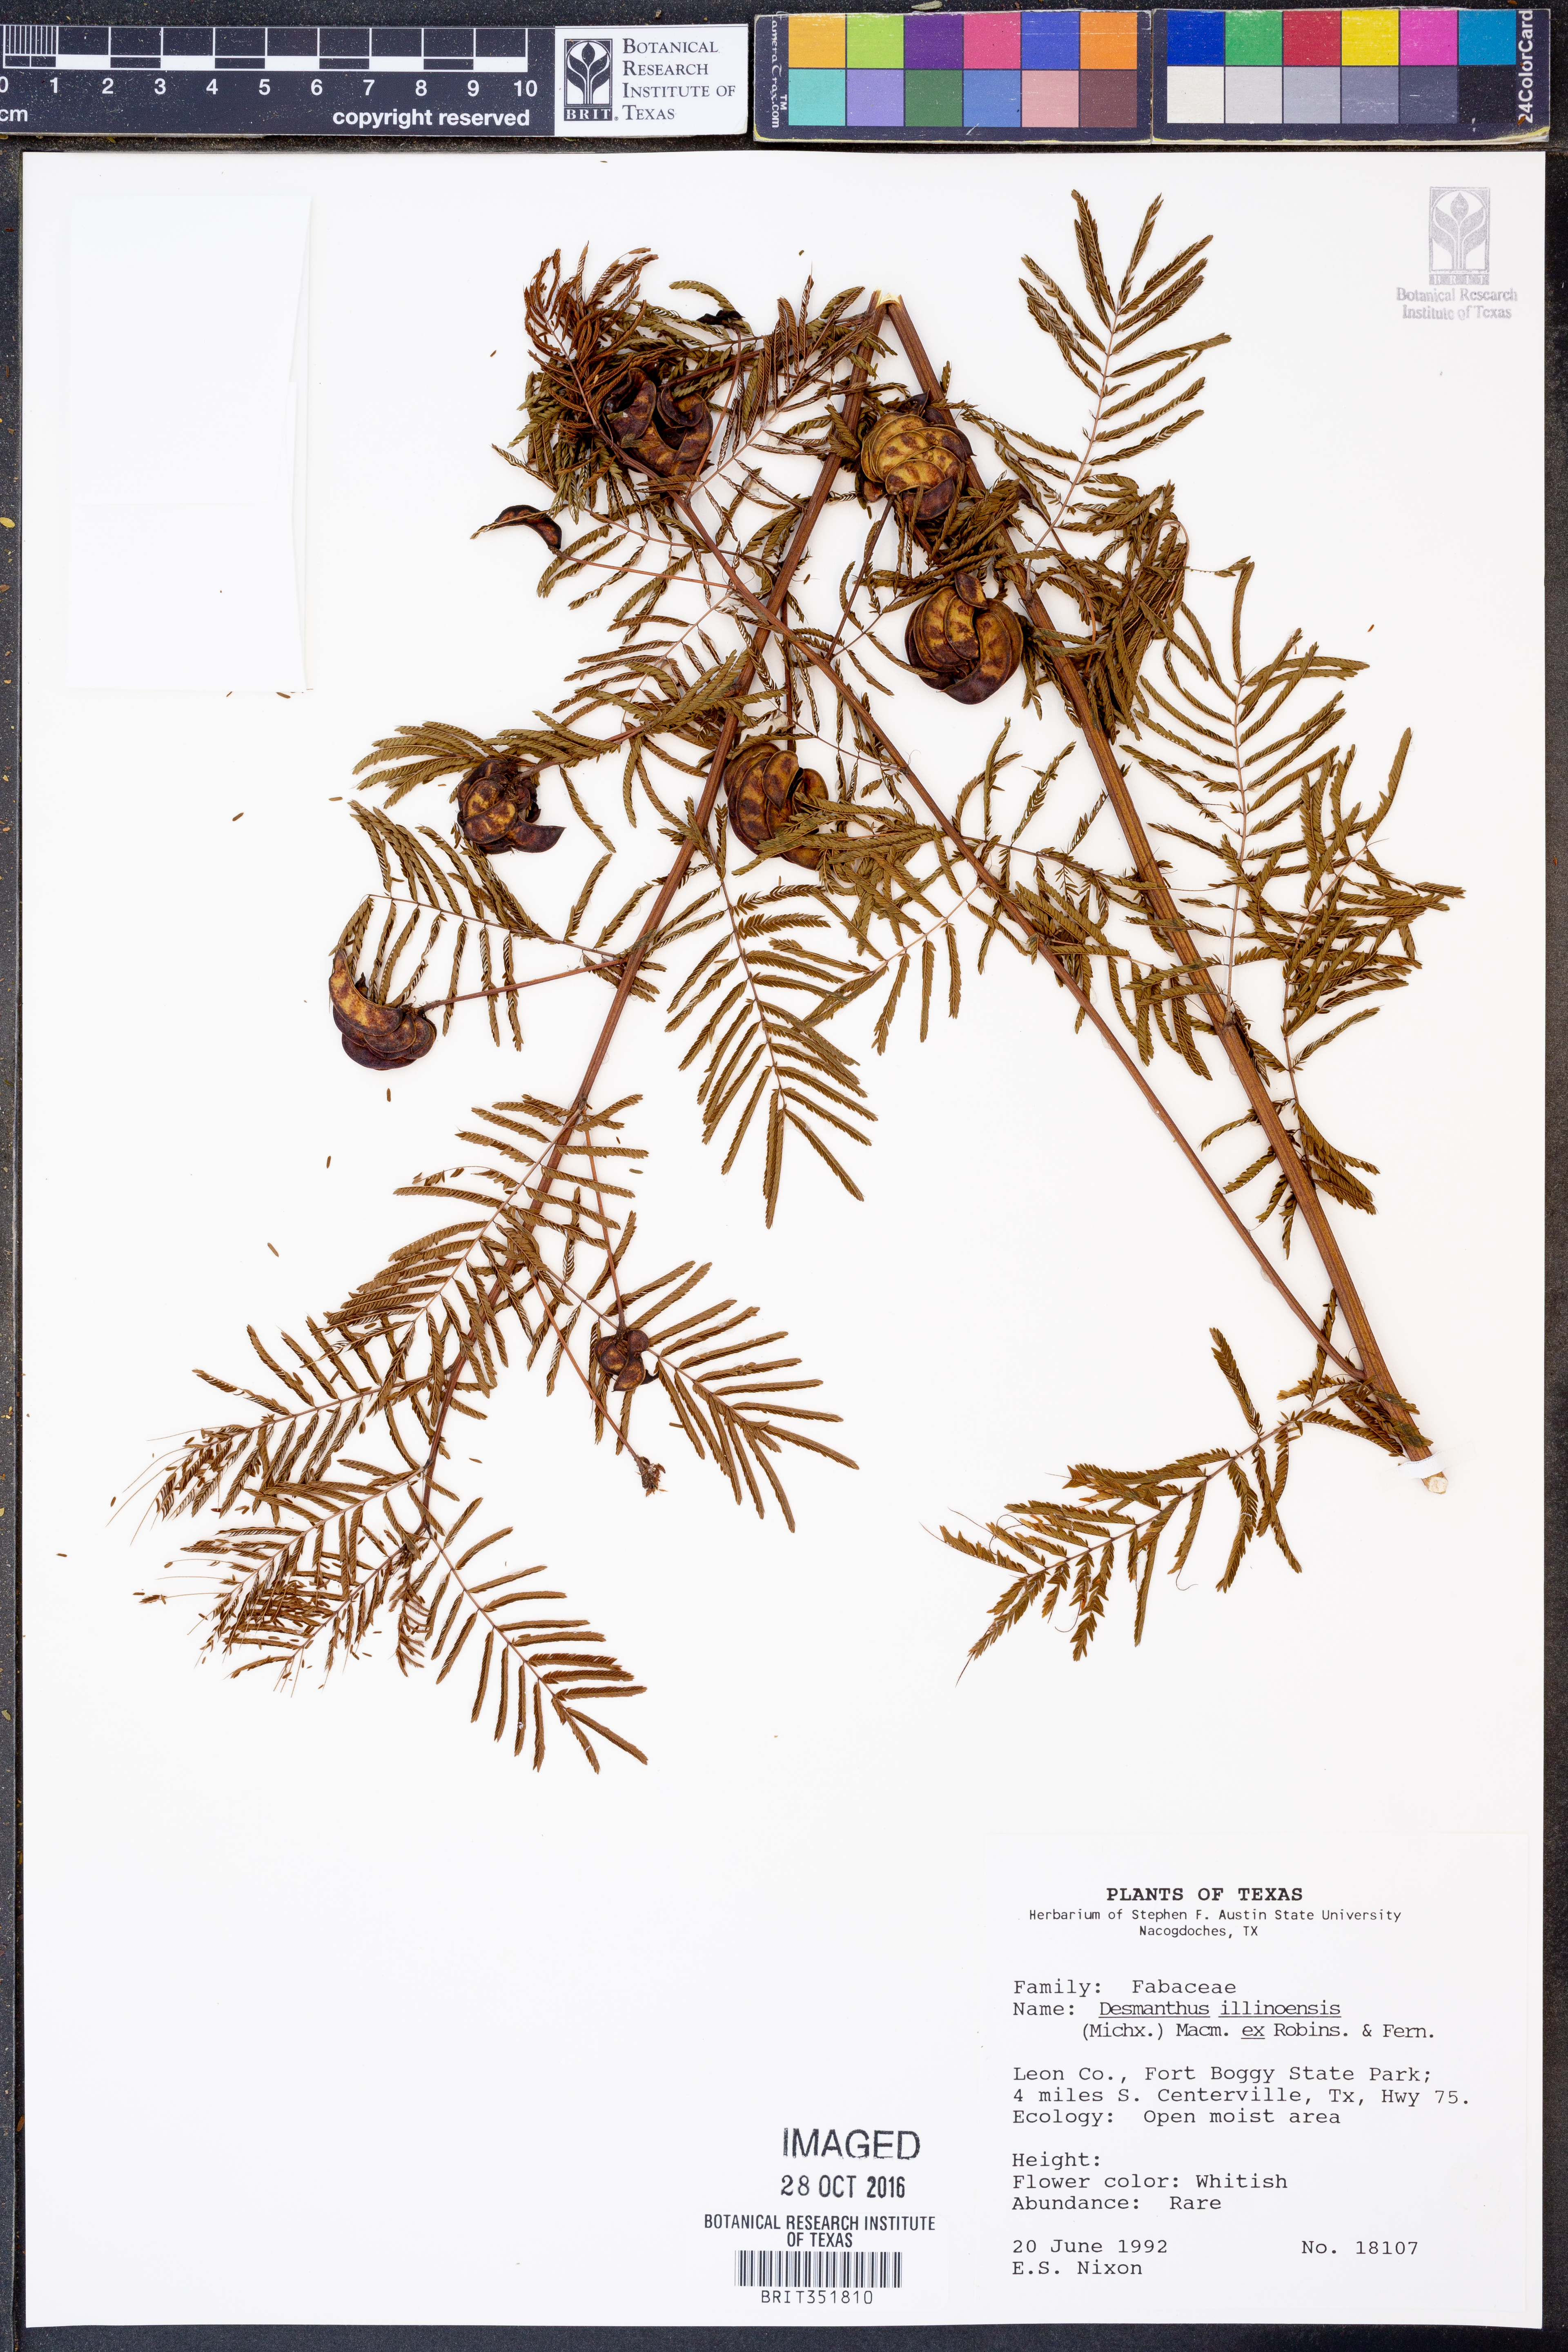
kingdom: Plantae
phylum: Tracheophyta
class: Magnoliopsida
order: Fabales
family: Fabaceae
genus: Desmanthus
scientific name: Desmanthus illinoensis
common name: Illinois bundle-flower
